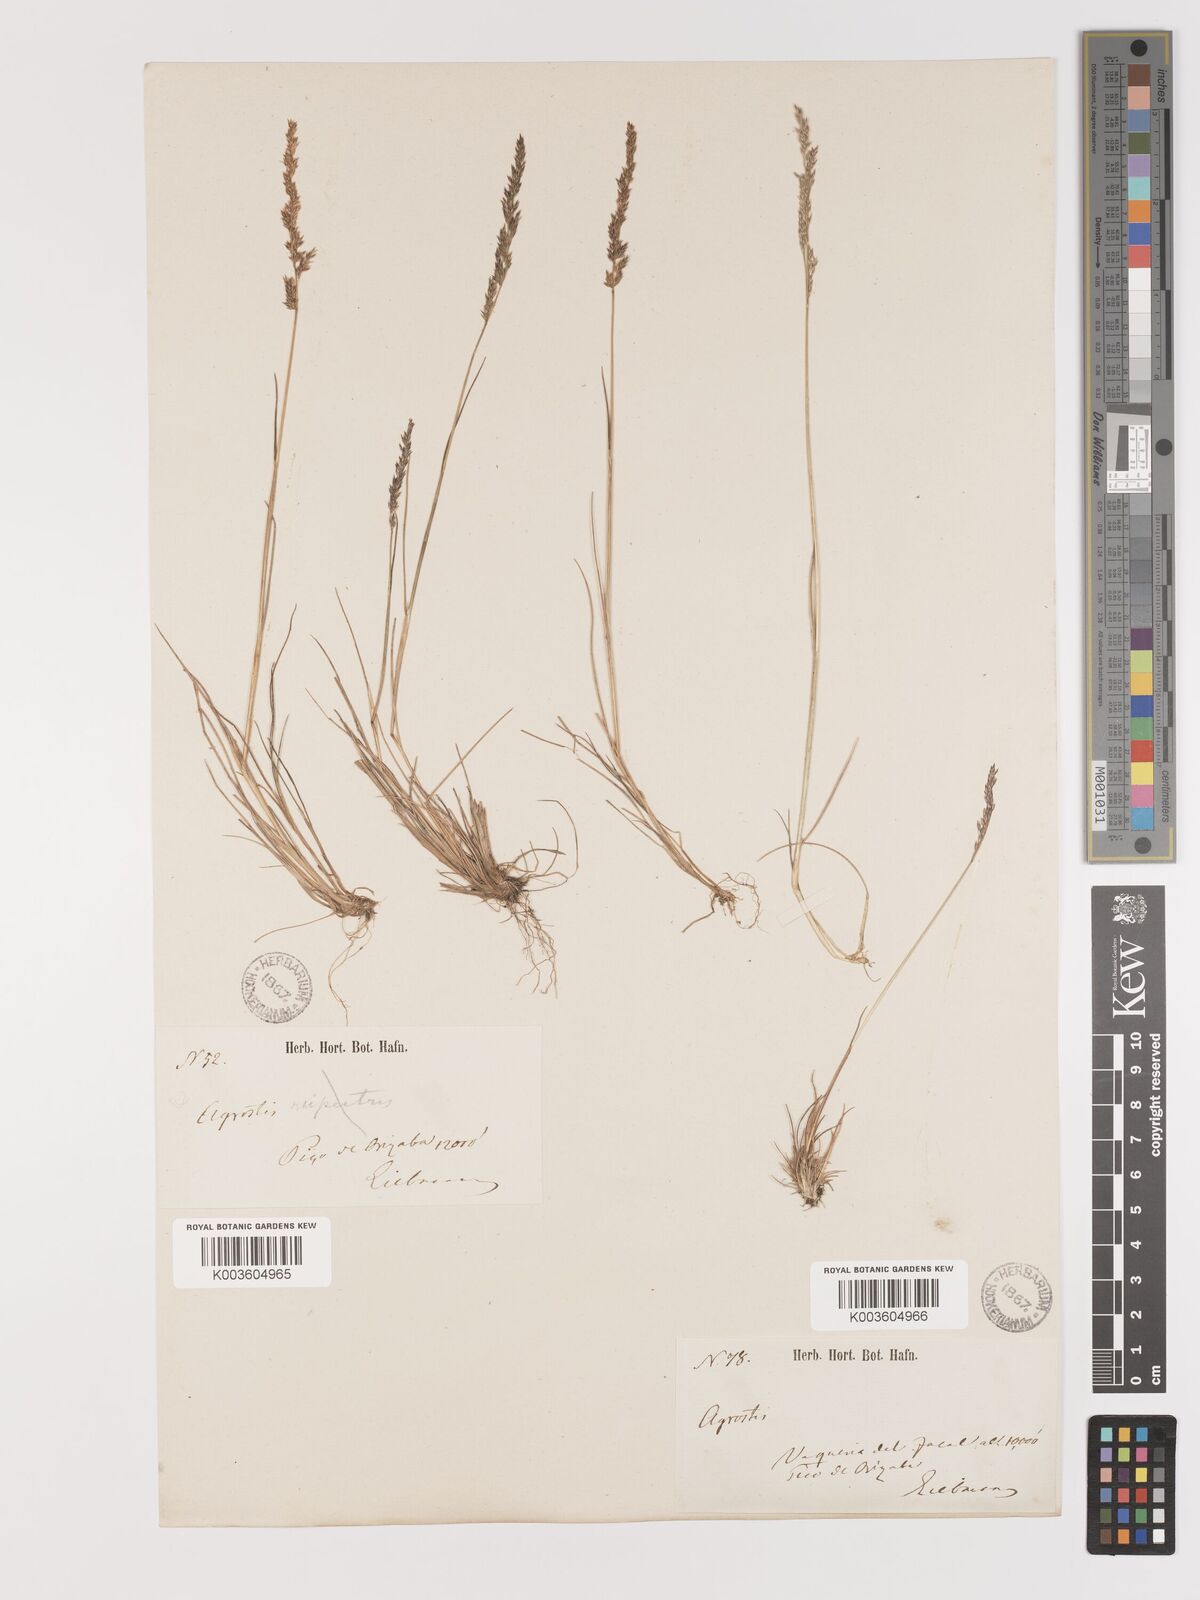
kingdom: Plantae
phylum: Tracheophyta
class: Liliopsida
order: Poales
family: Poaceae
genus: Agrostis
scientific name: Agrostis tolucensis
